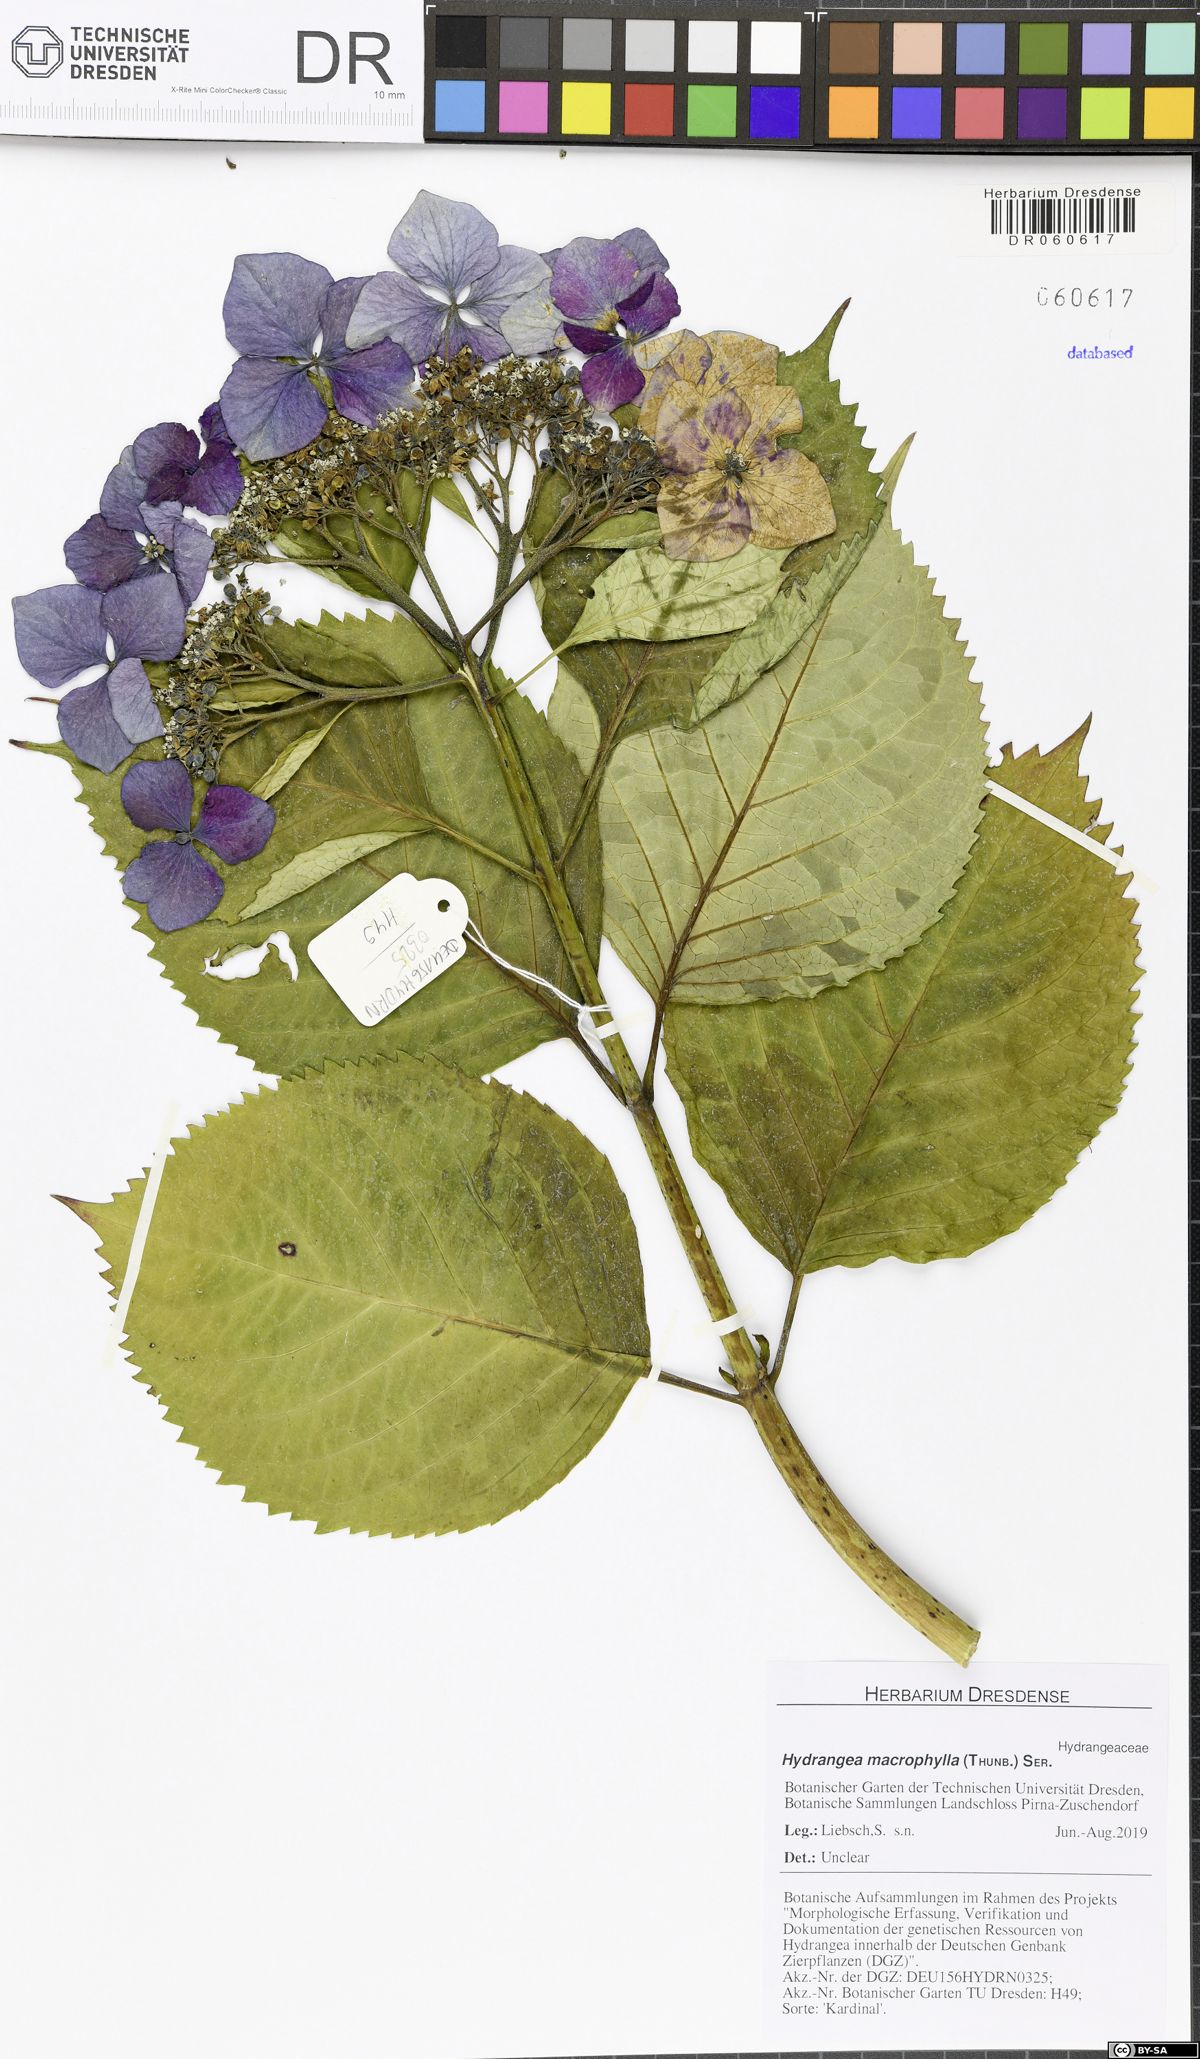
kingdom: Plantae
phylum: Tracheophyta
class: Magnoliopsida
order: Cornales
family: Hydrangeaceae
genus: Hydrangea
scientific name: Hydrangea macrophylla
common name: Hydrangea
